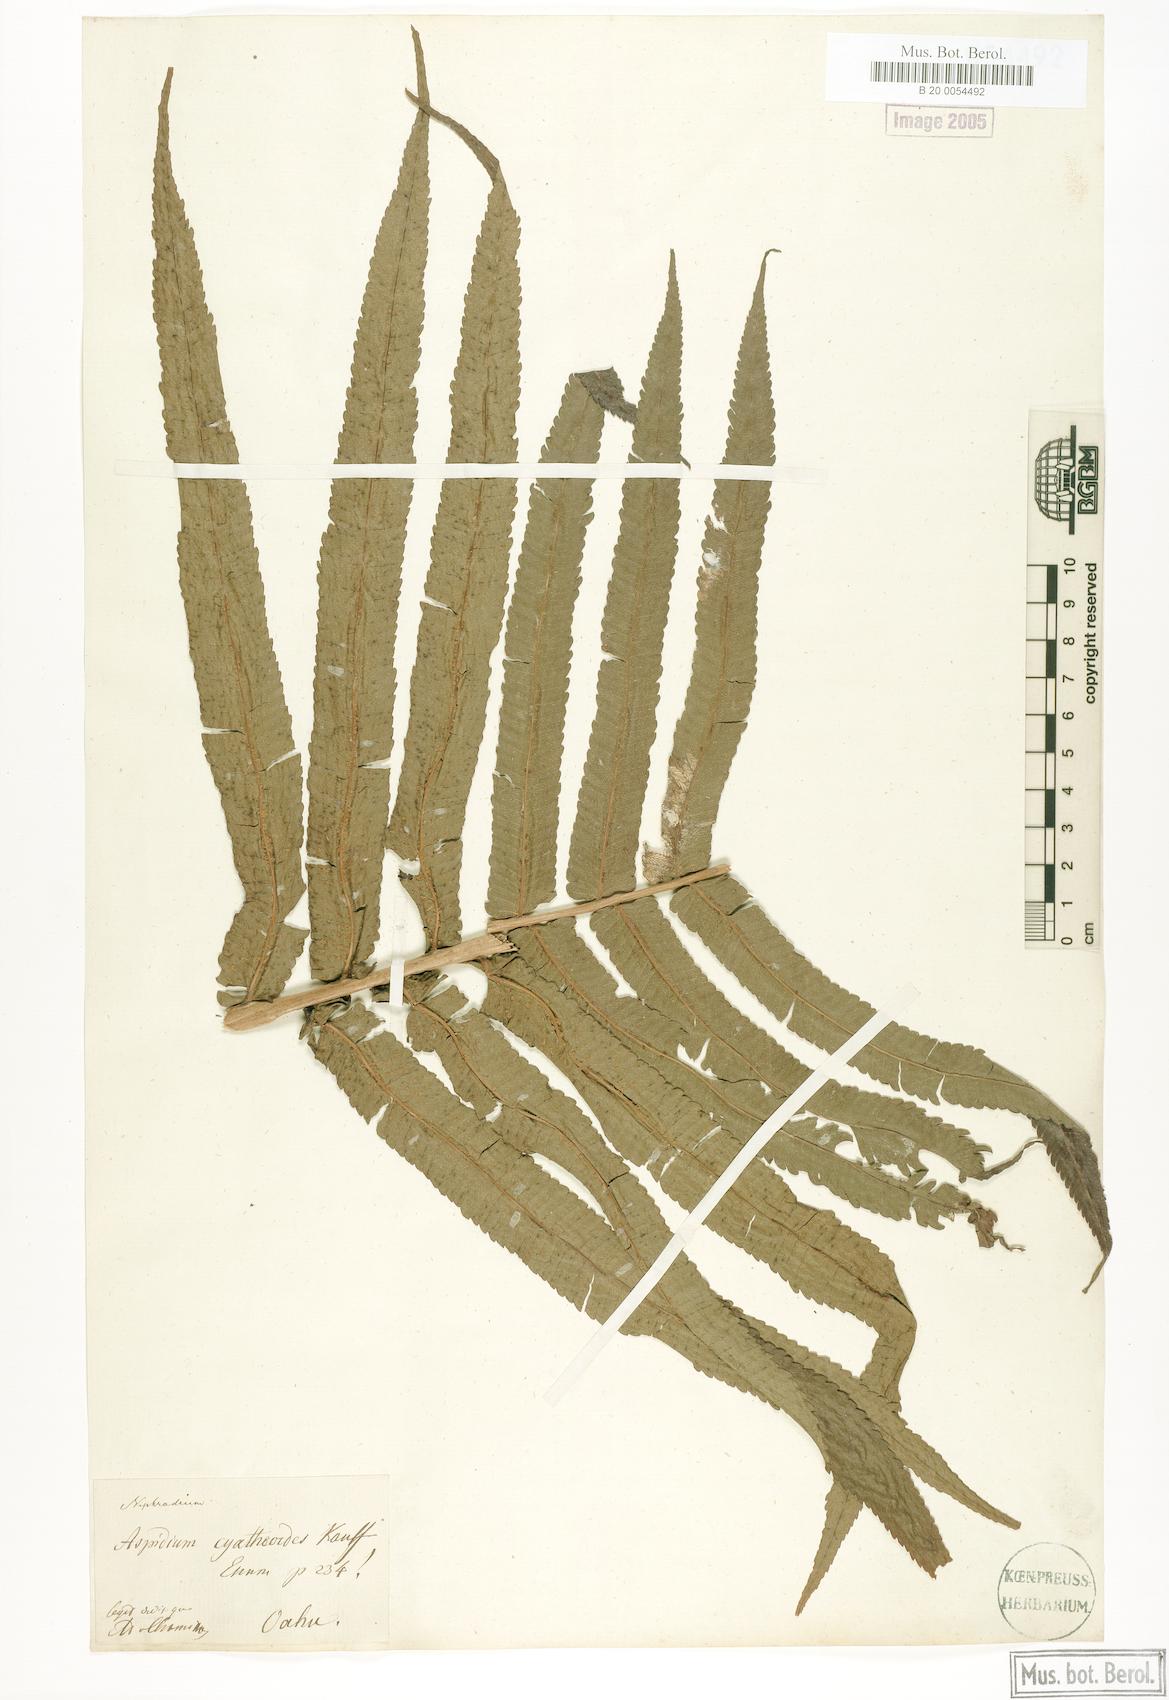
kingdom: Plantae
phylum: Tracheophyta
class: Polypodiopsida
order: Polypodiales
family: Thelypteridaceae
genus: Menisciopsis
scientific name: Menisciopsis cyatheoides
